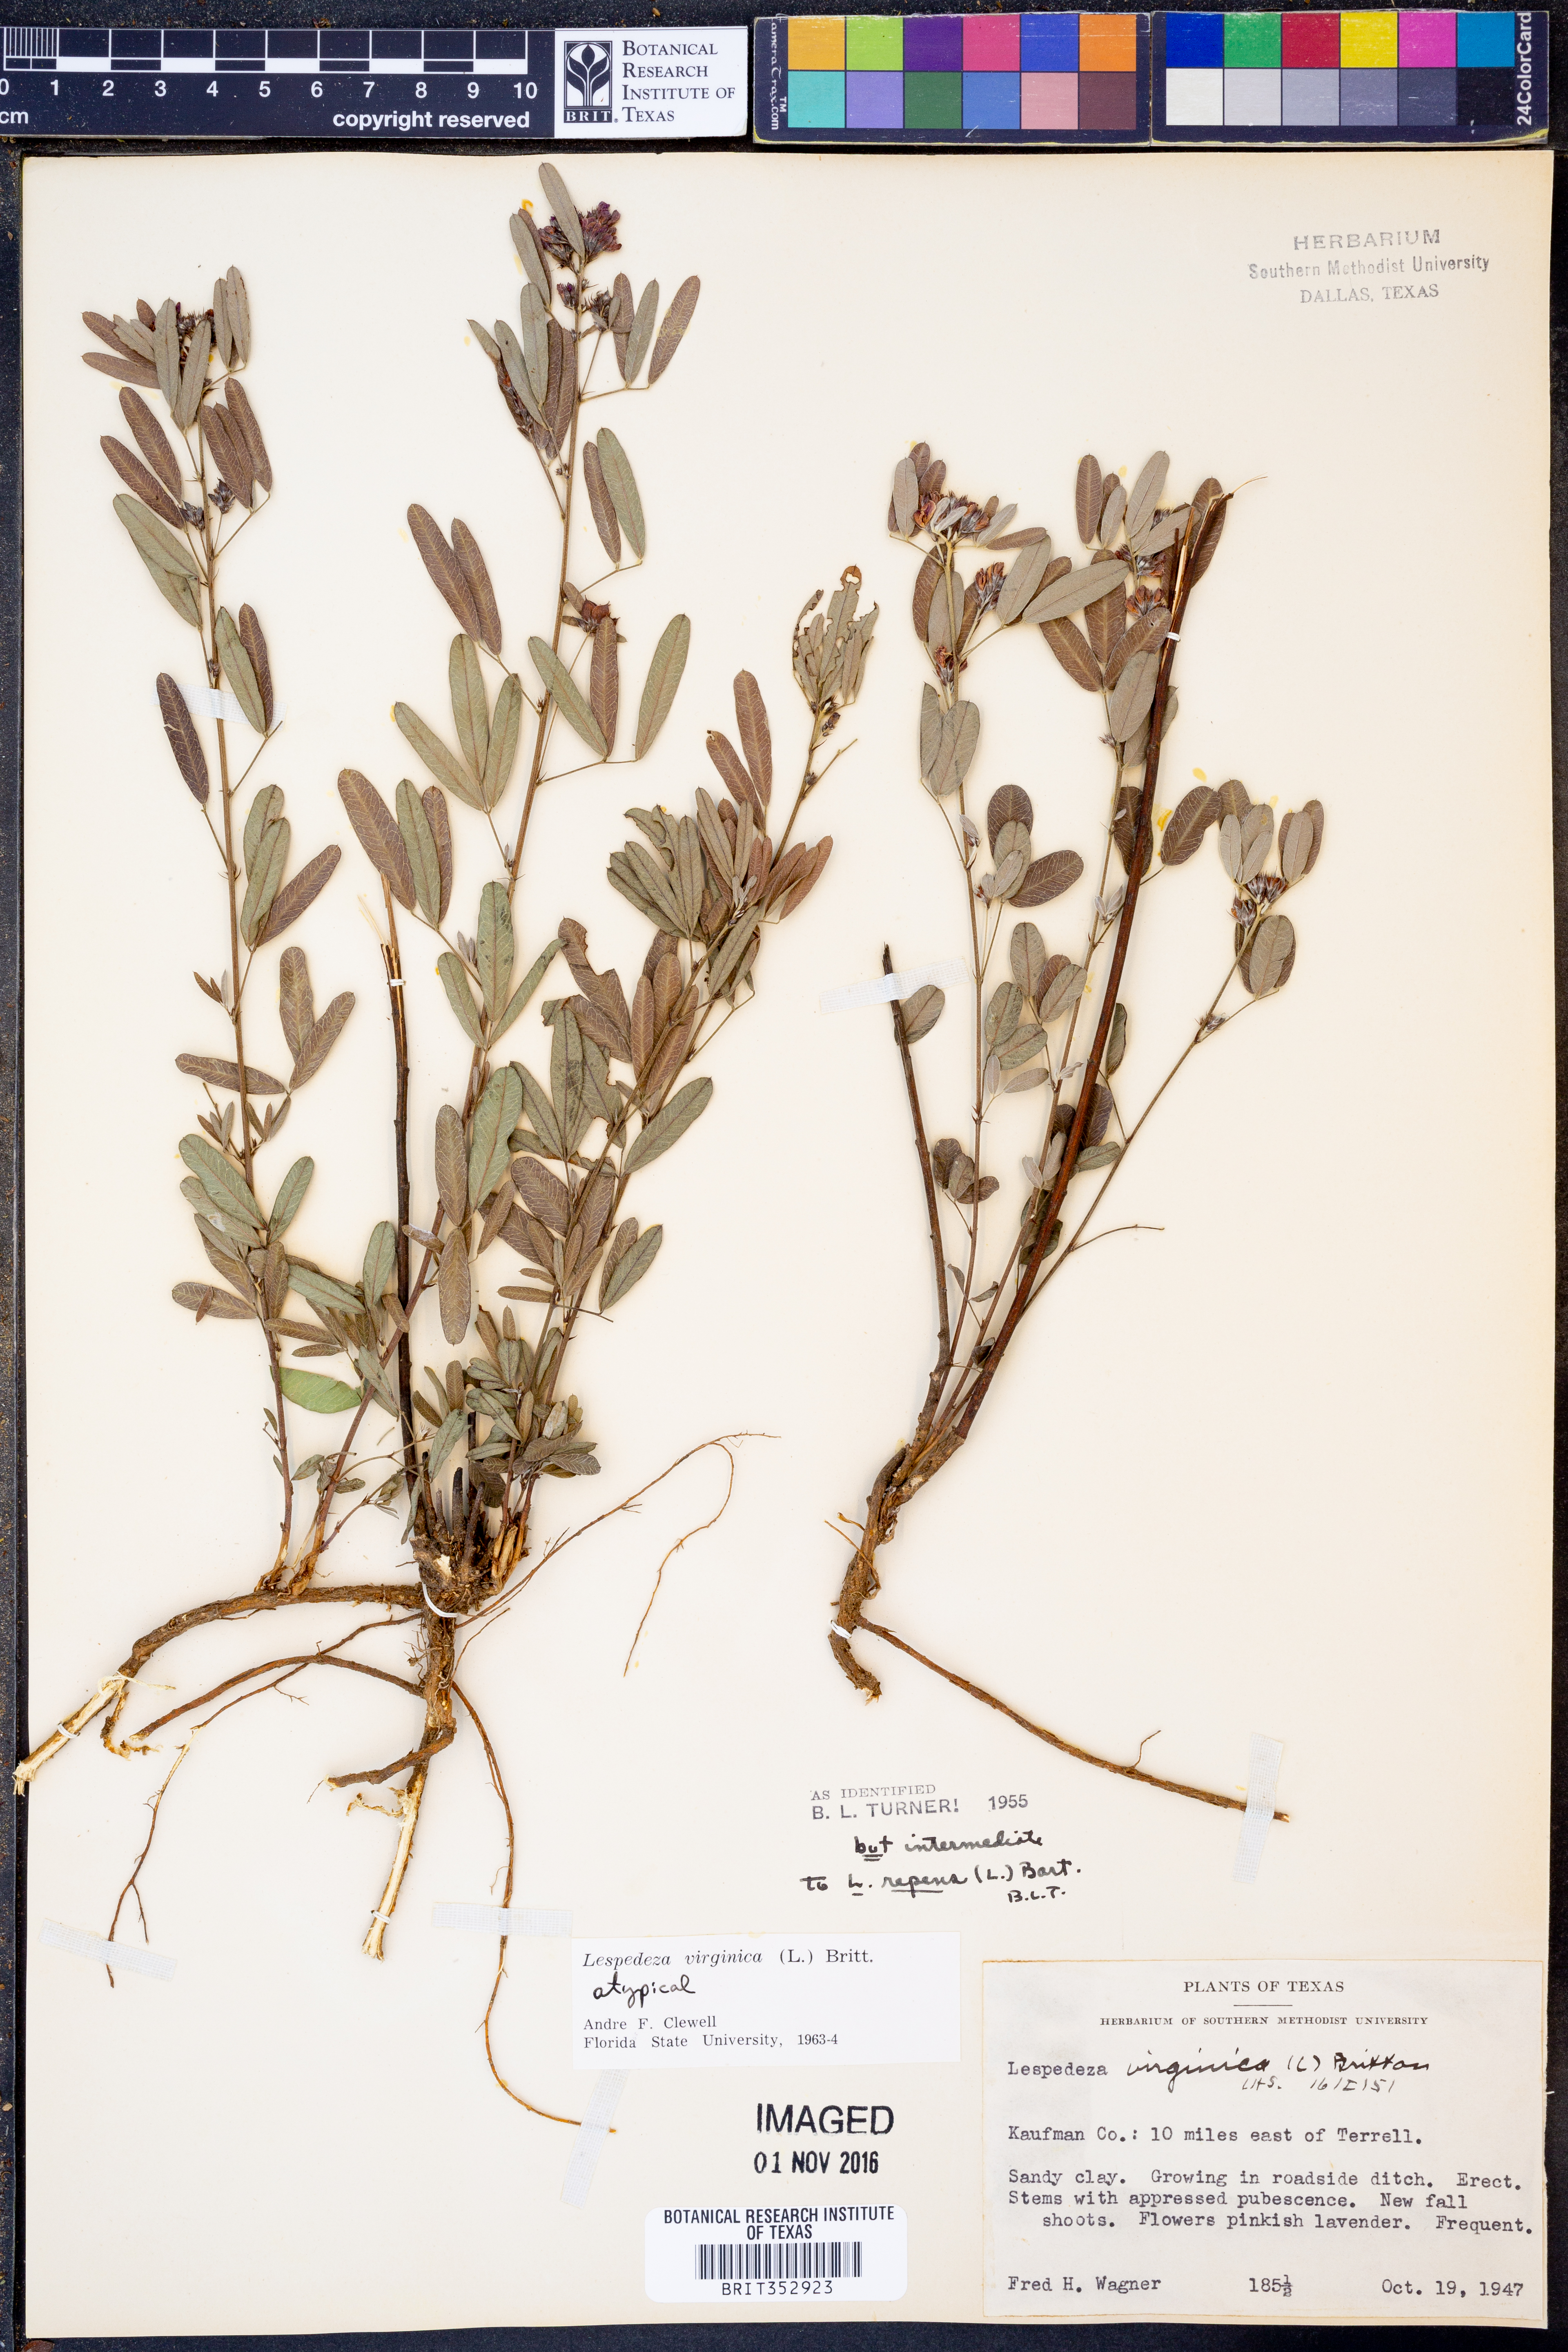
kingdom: Plantae
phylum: Tracheophyta
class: Magnoliopsida
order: Fabales
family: Fabaceae
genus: Lespedeza
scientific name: Lespedeza virginica
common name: Slender bush-clover
